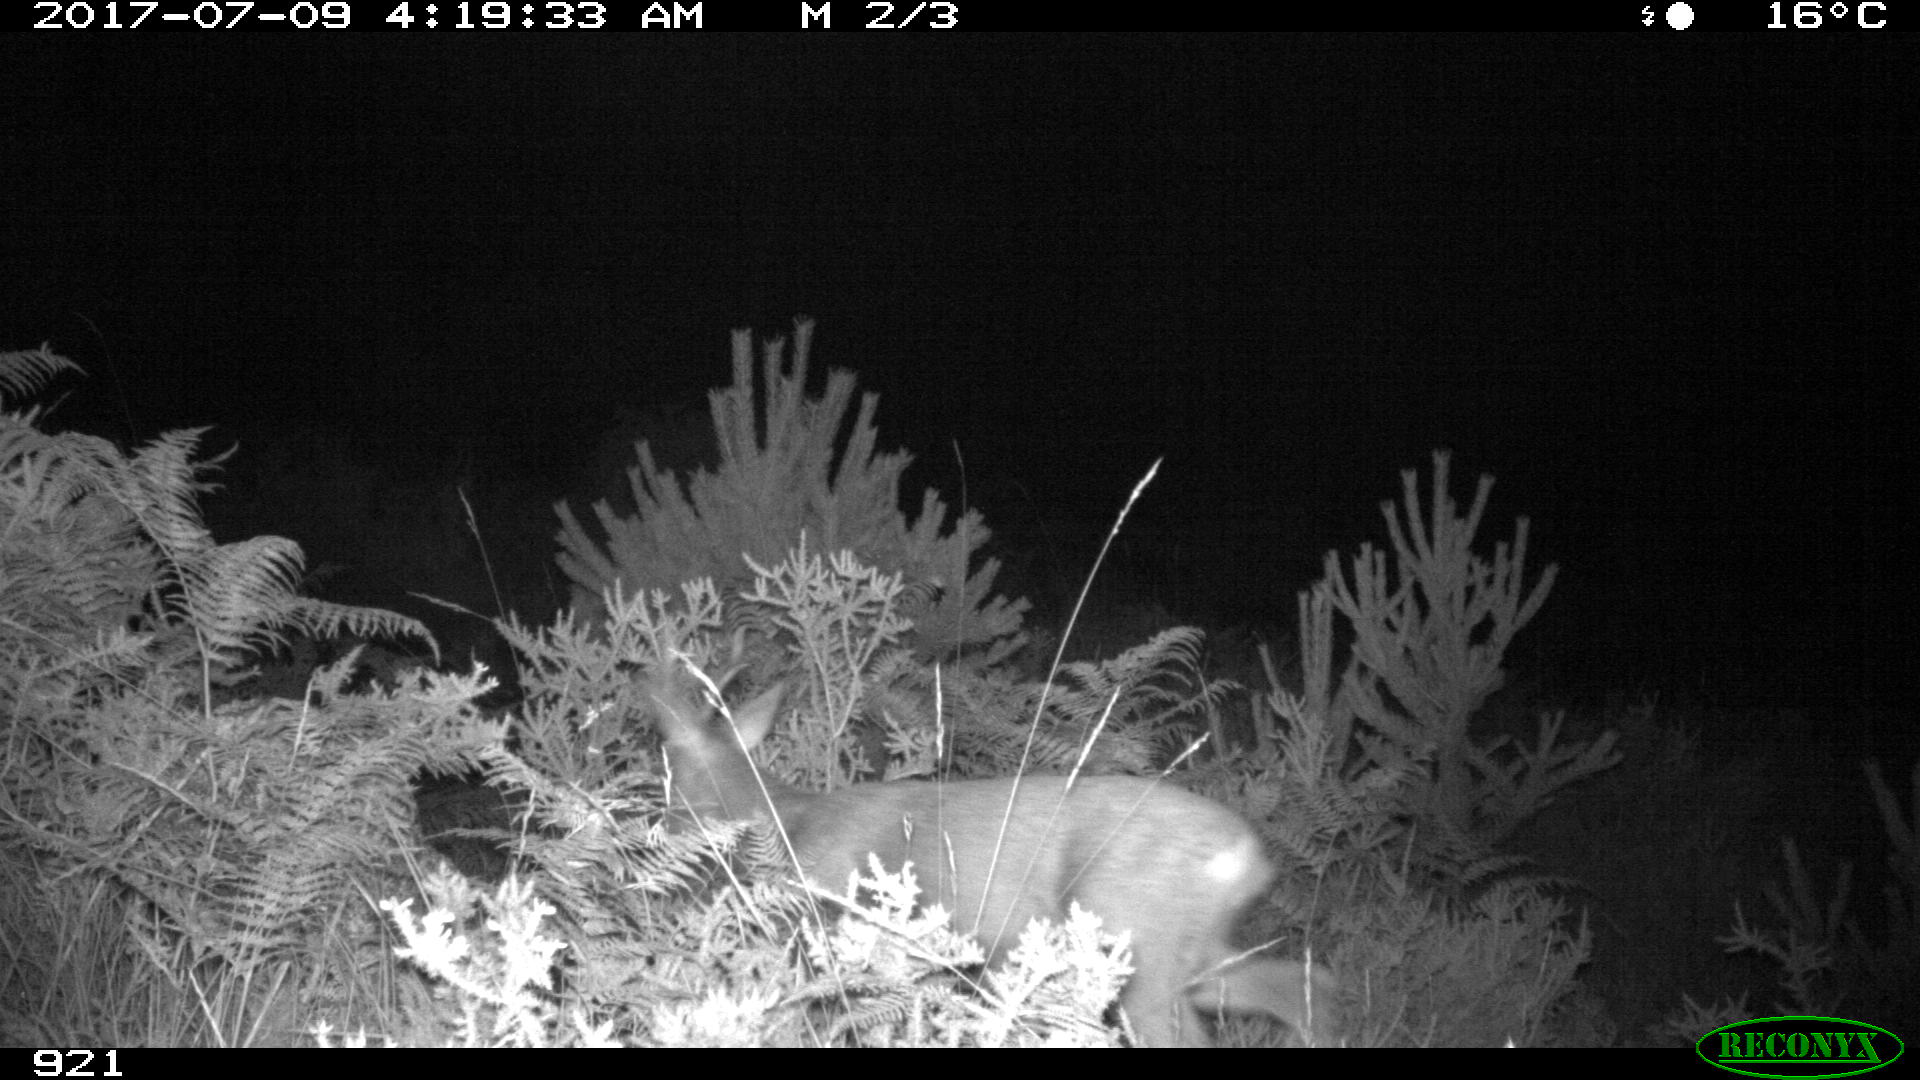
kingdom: Animalia
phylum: Chordata
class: Mammalia
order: Artiodactyla
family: Cervidae
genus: Capreolus
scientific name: Capreolus capreolus
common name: Western roe deer
